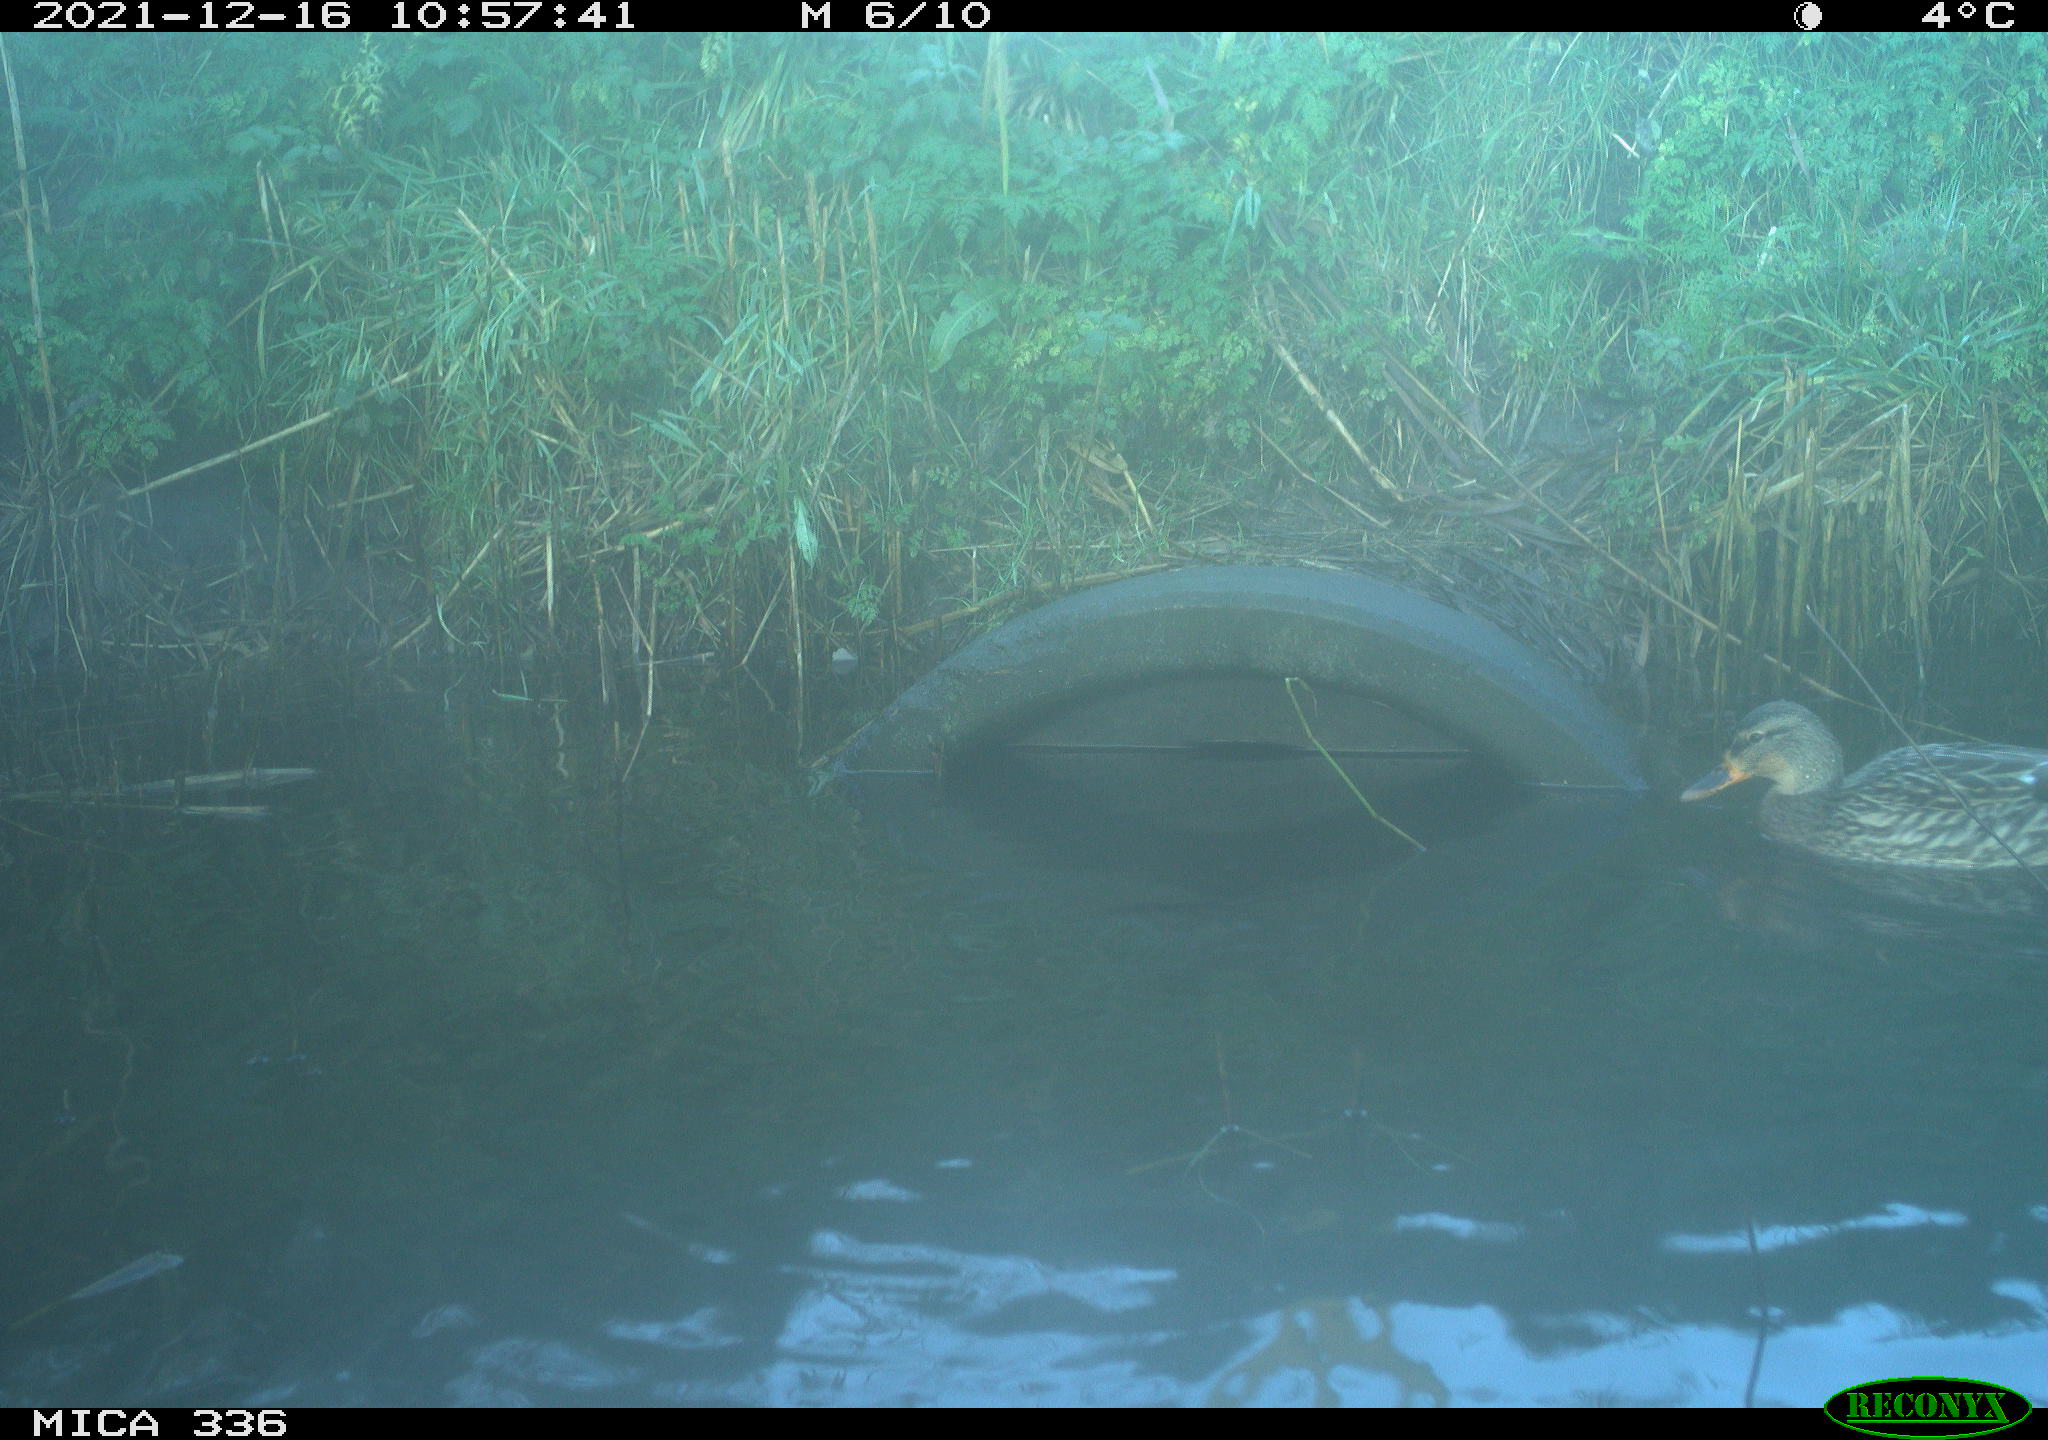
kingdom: Animalia
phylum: Chordata
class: Aves
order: Anseriformes
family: Anatidae
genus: Anas
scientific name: Anas platyrhynchos
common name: Mallard
